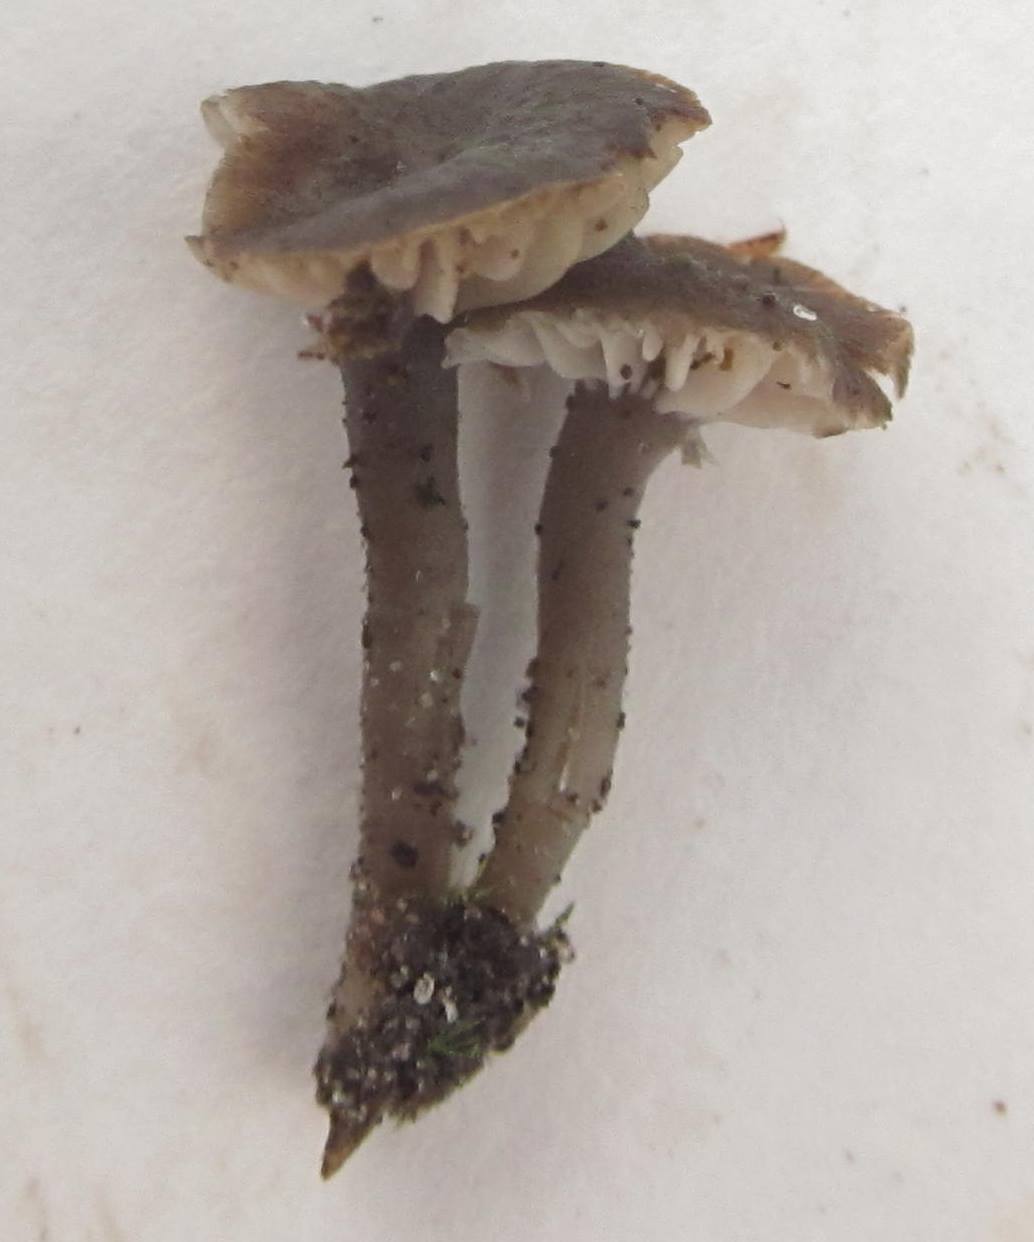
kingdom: Fungi
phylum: Basidiomycota
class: Agaricomycetes
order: Agaricales
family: Clavariaceae
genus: Camarophyllopsis
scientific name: Camarophyllopsis atrovelutina
